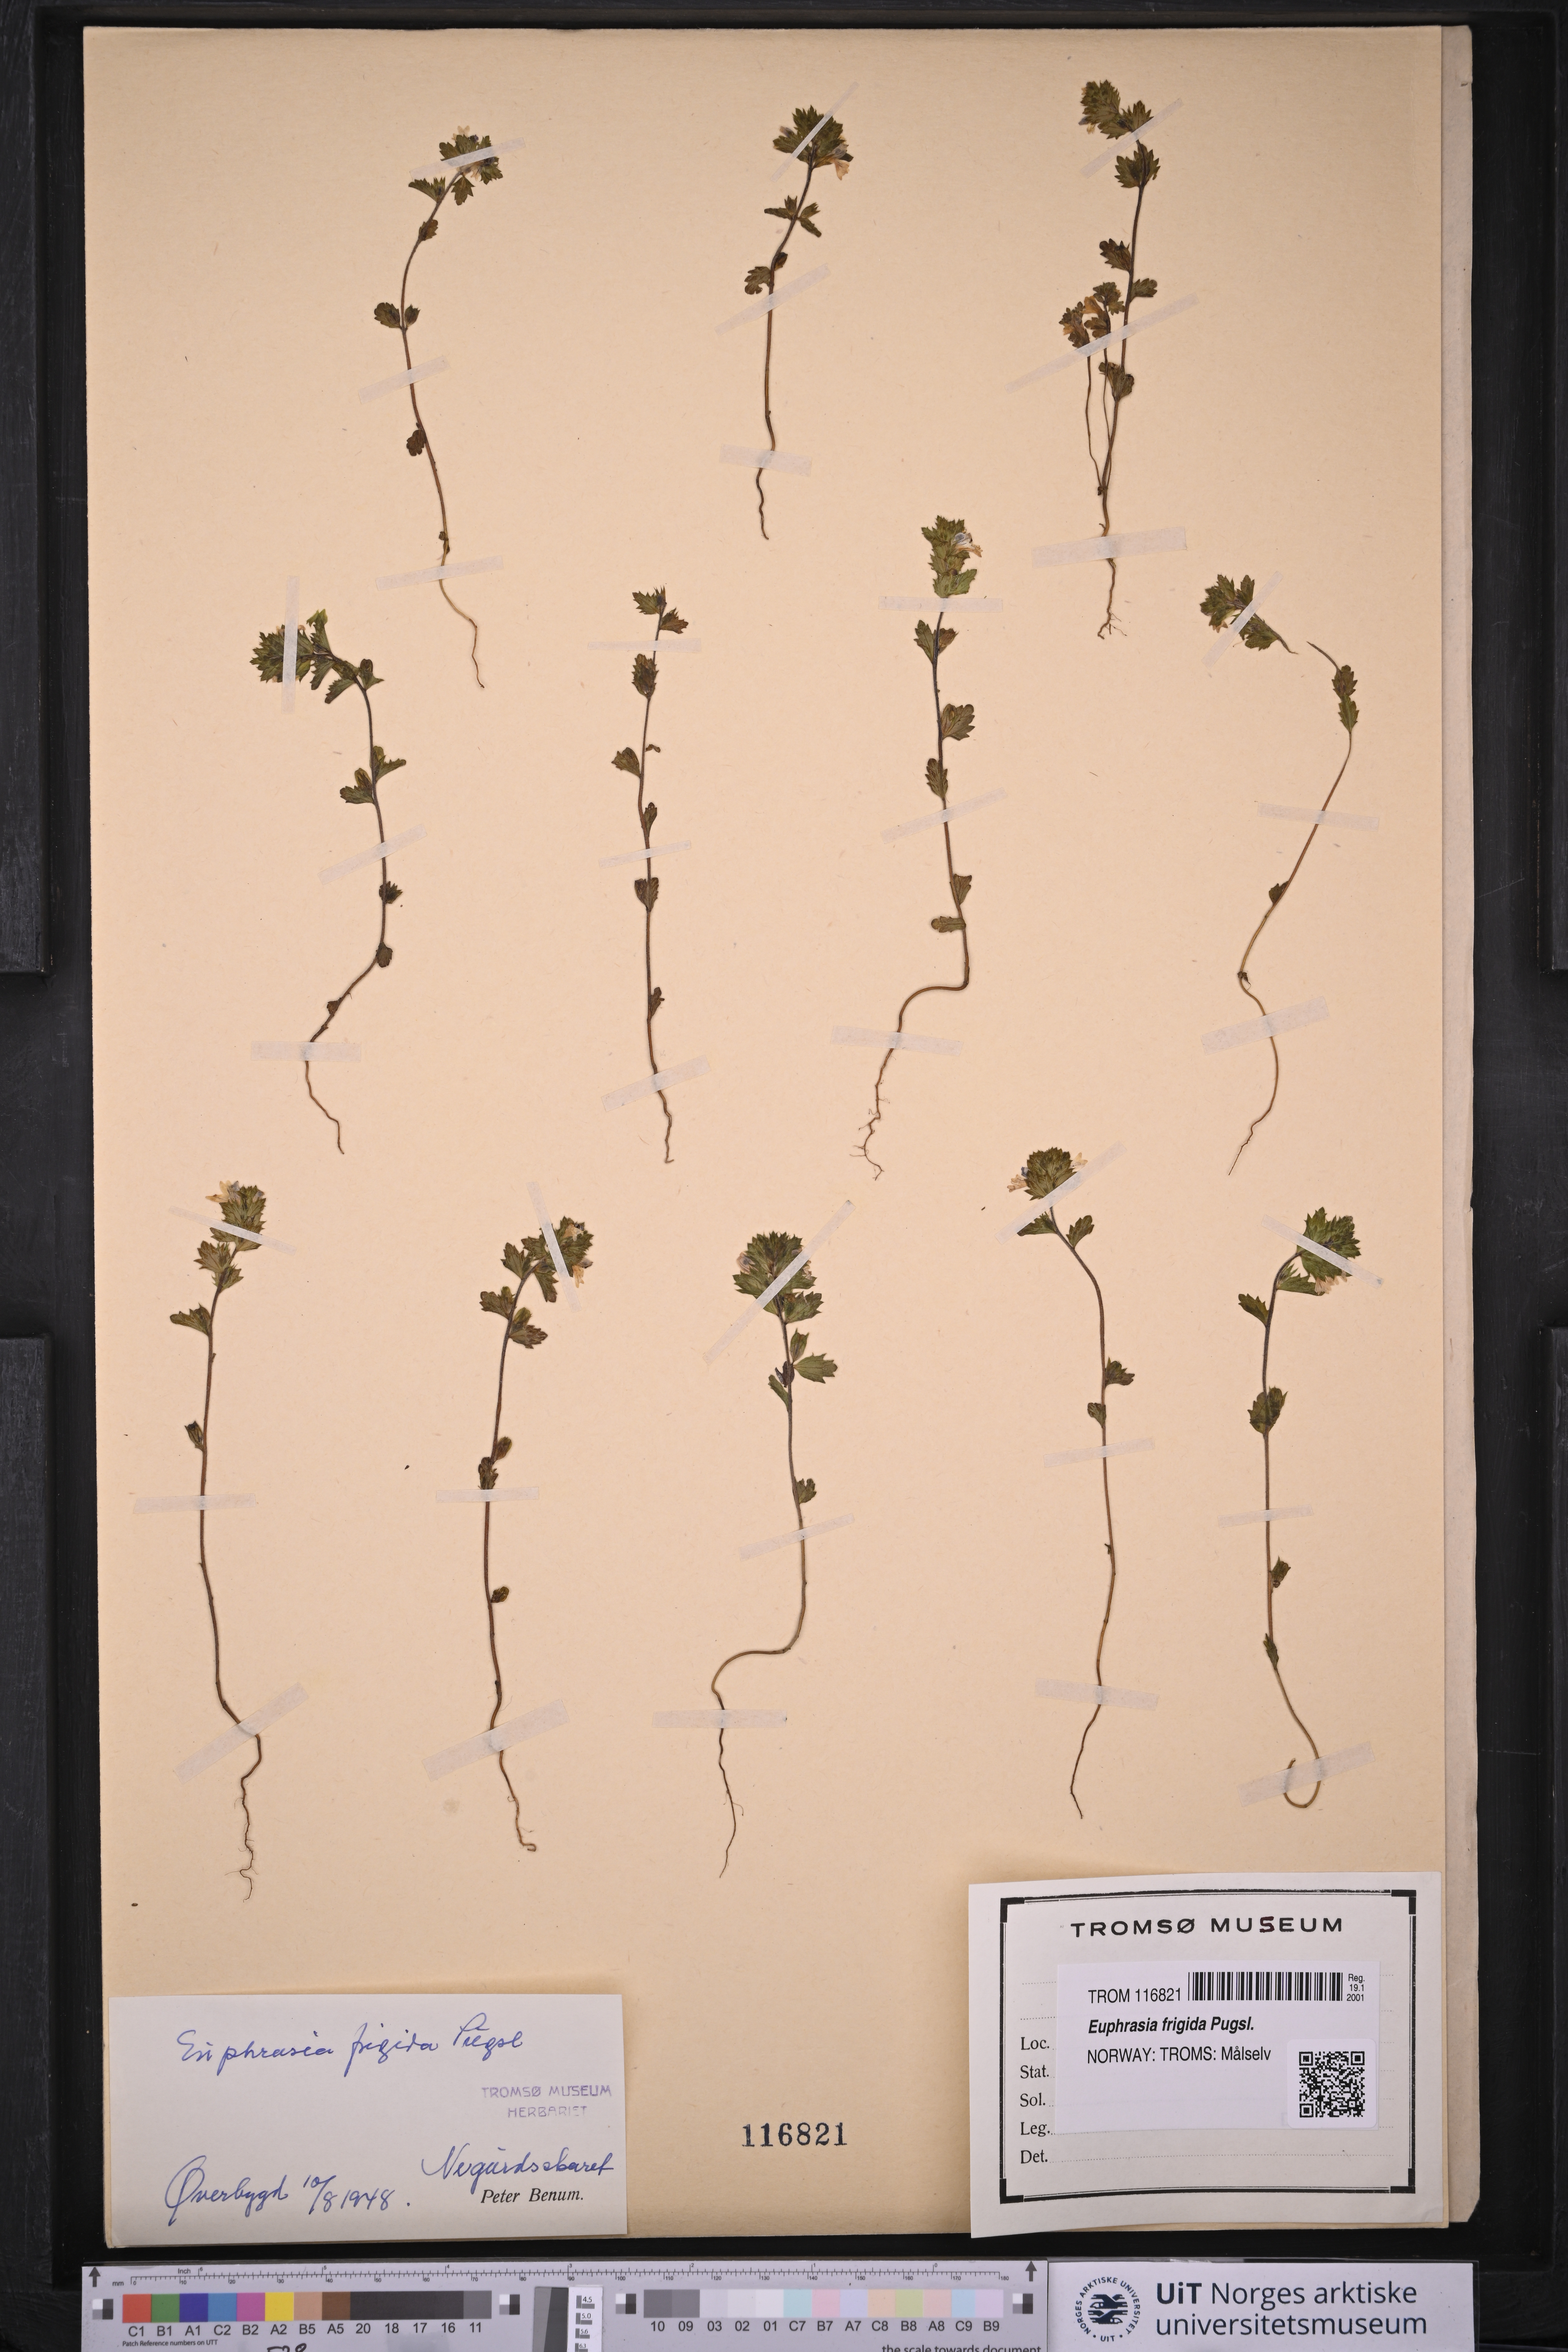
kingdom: Plantae
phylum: Tracheophyta
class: Magnoliopsida
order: Lamiales
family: Orobanchaceae
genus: Euphrasia
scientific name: Euphrasia frigida
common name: An eyebright
